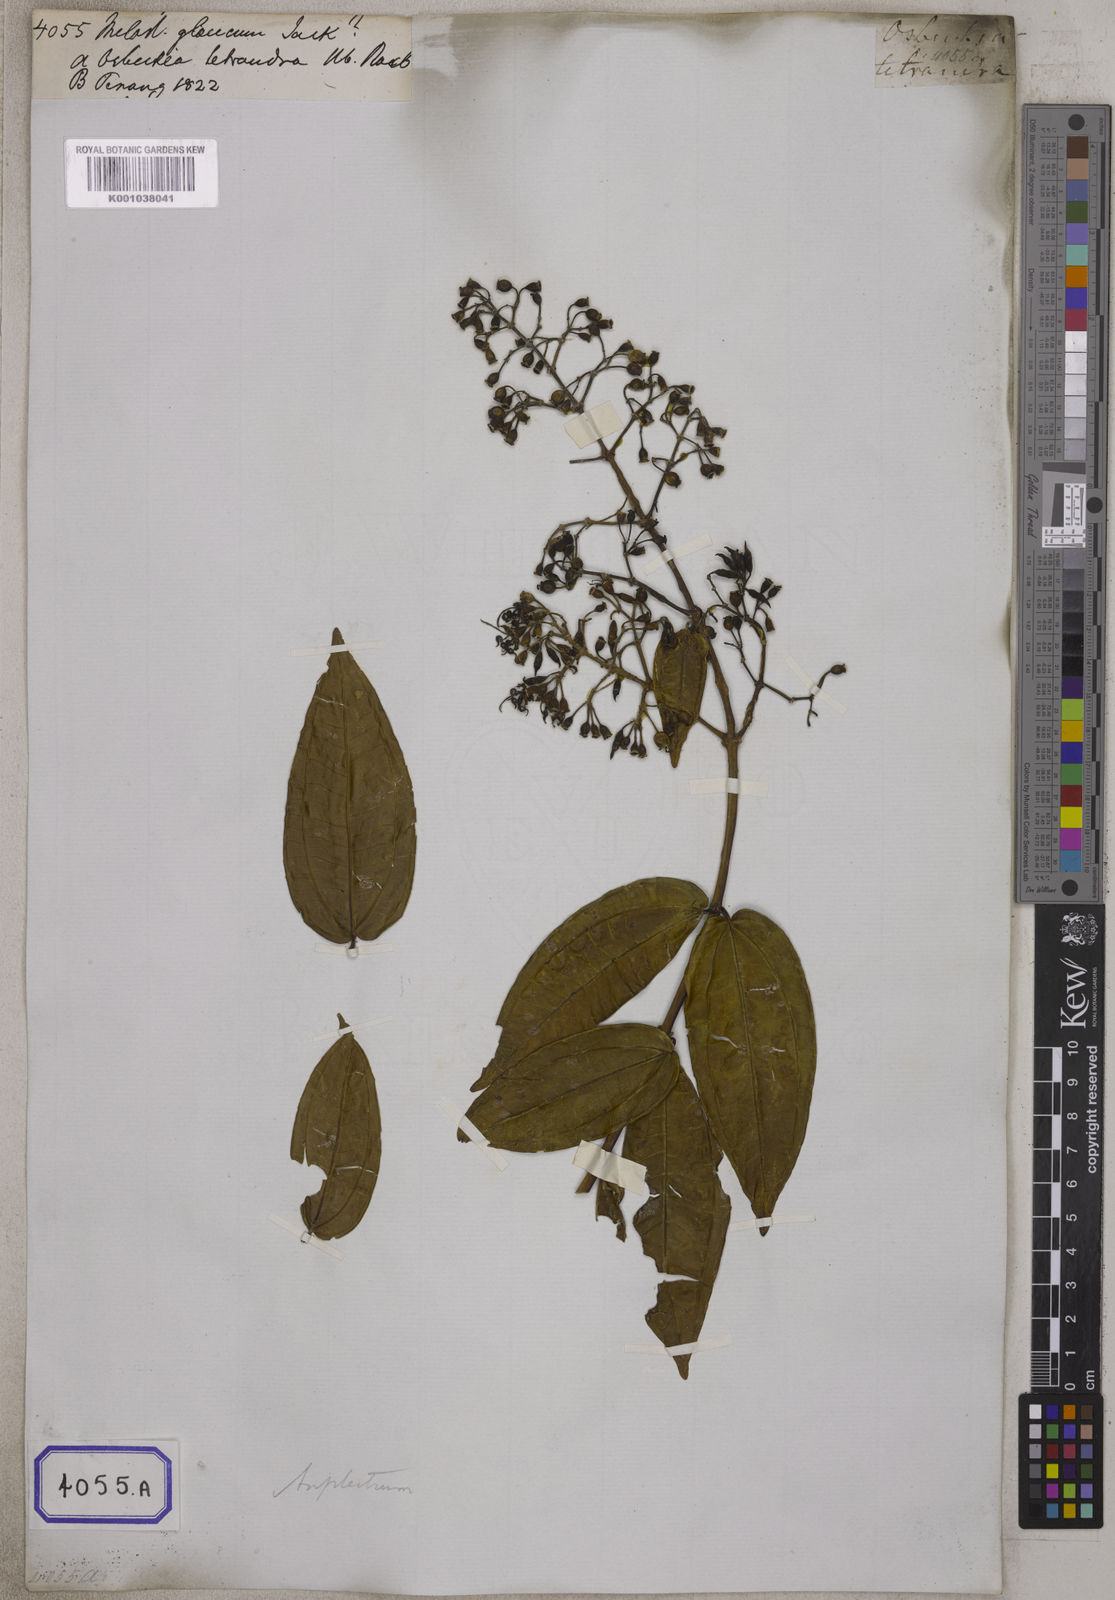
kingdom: Plantae
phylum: Tracheophyta
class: Magnoliopsida
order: Myrtales
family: Melastomataceae
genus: Osbeckia
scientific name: Osbeckia aspera
